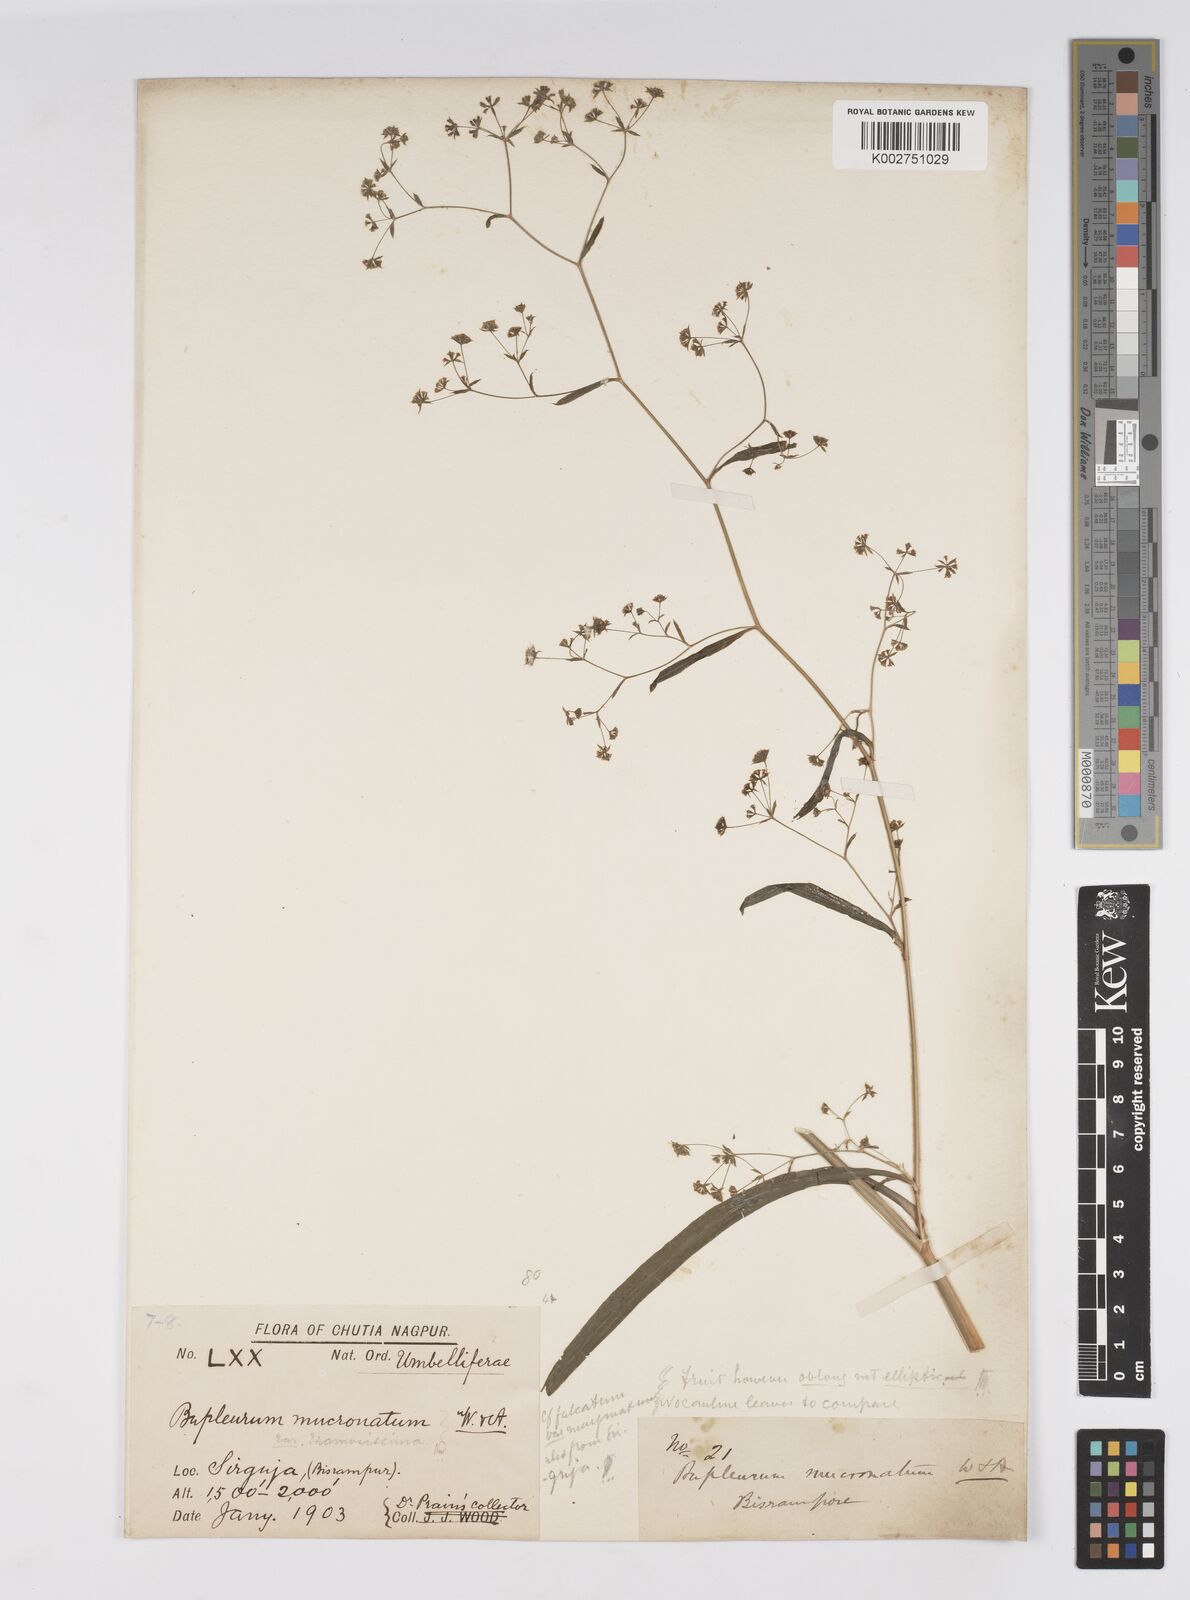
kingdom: Plantae
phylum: Tracheophyta
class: Magnoliopsida
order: Apiales
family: Apiaceae
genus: Bupleurum
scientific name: Bupleurum falcatum
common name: Sickle-leaved hare's-ear
